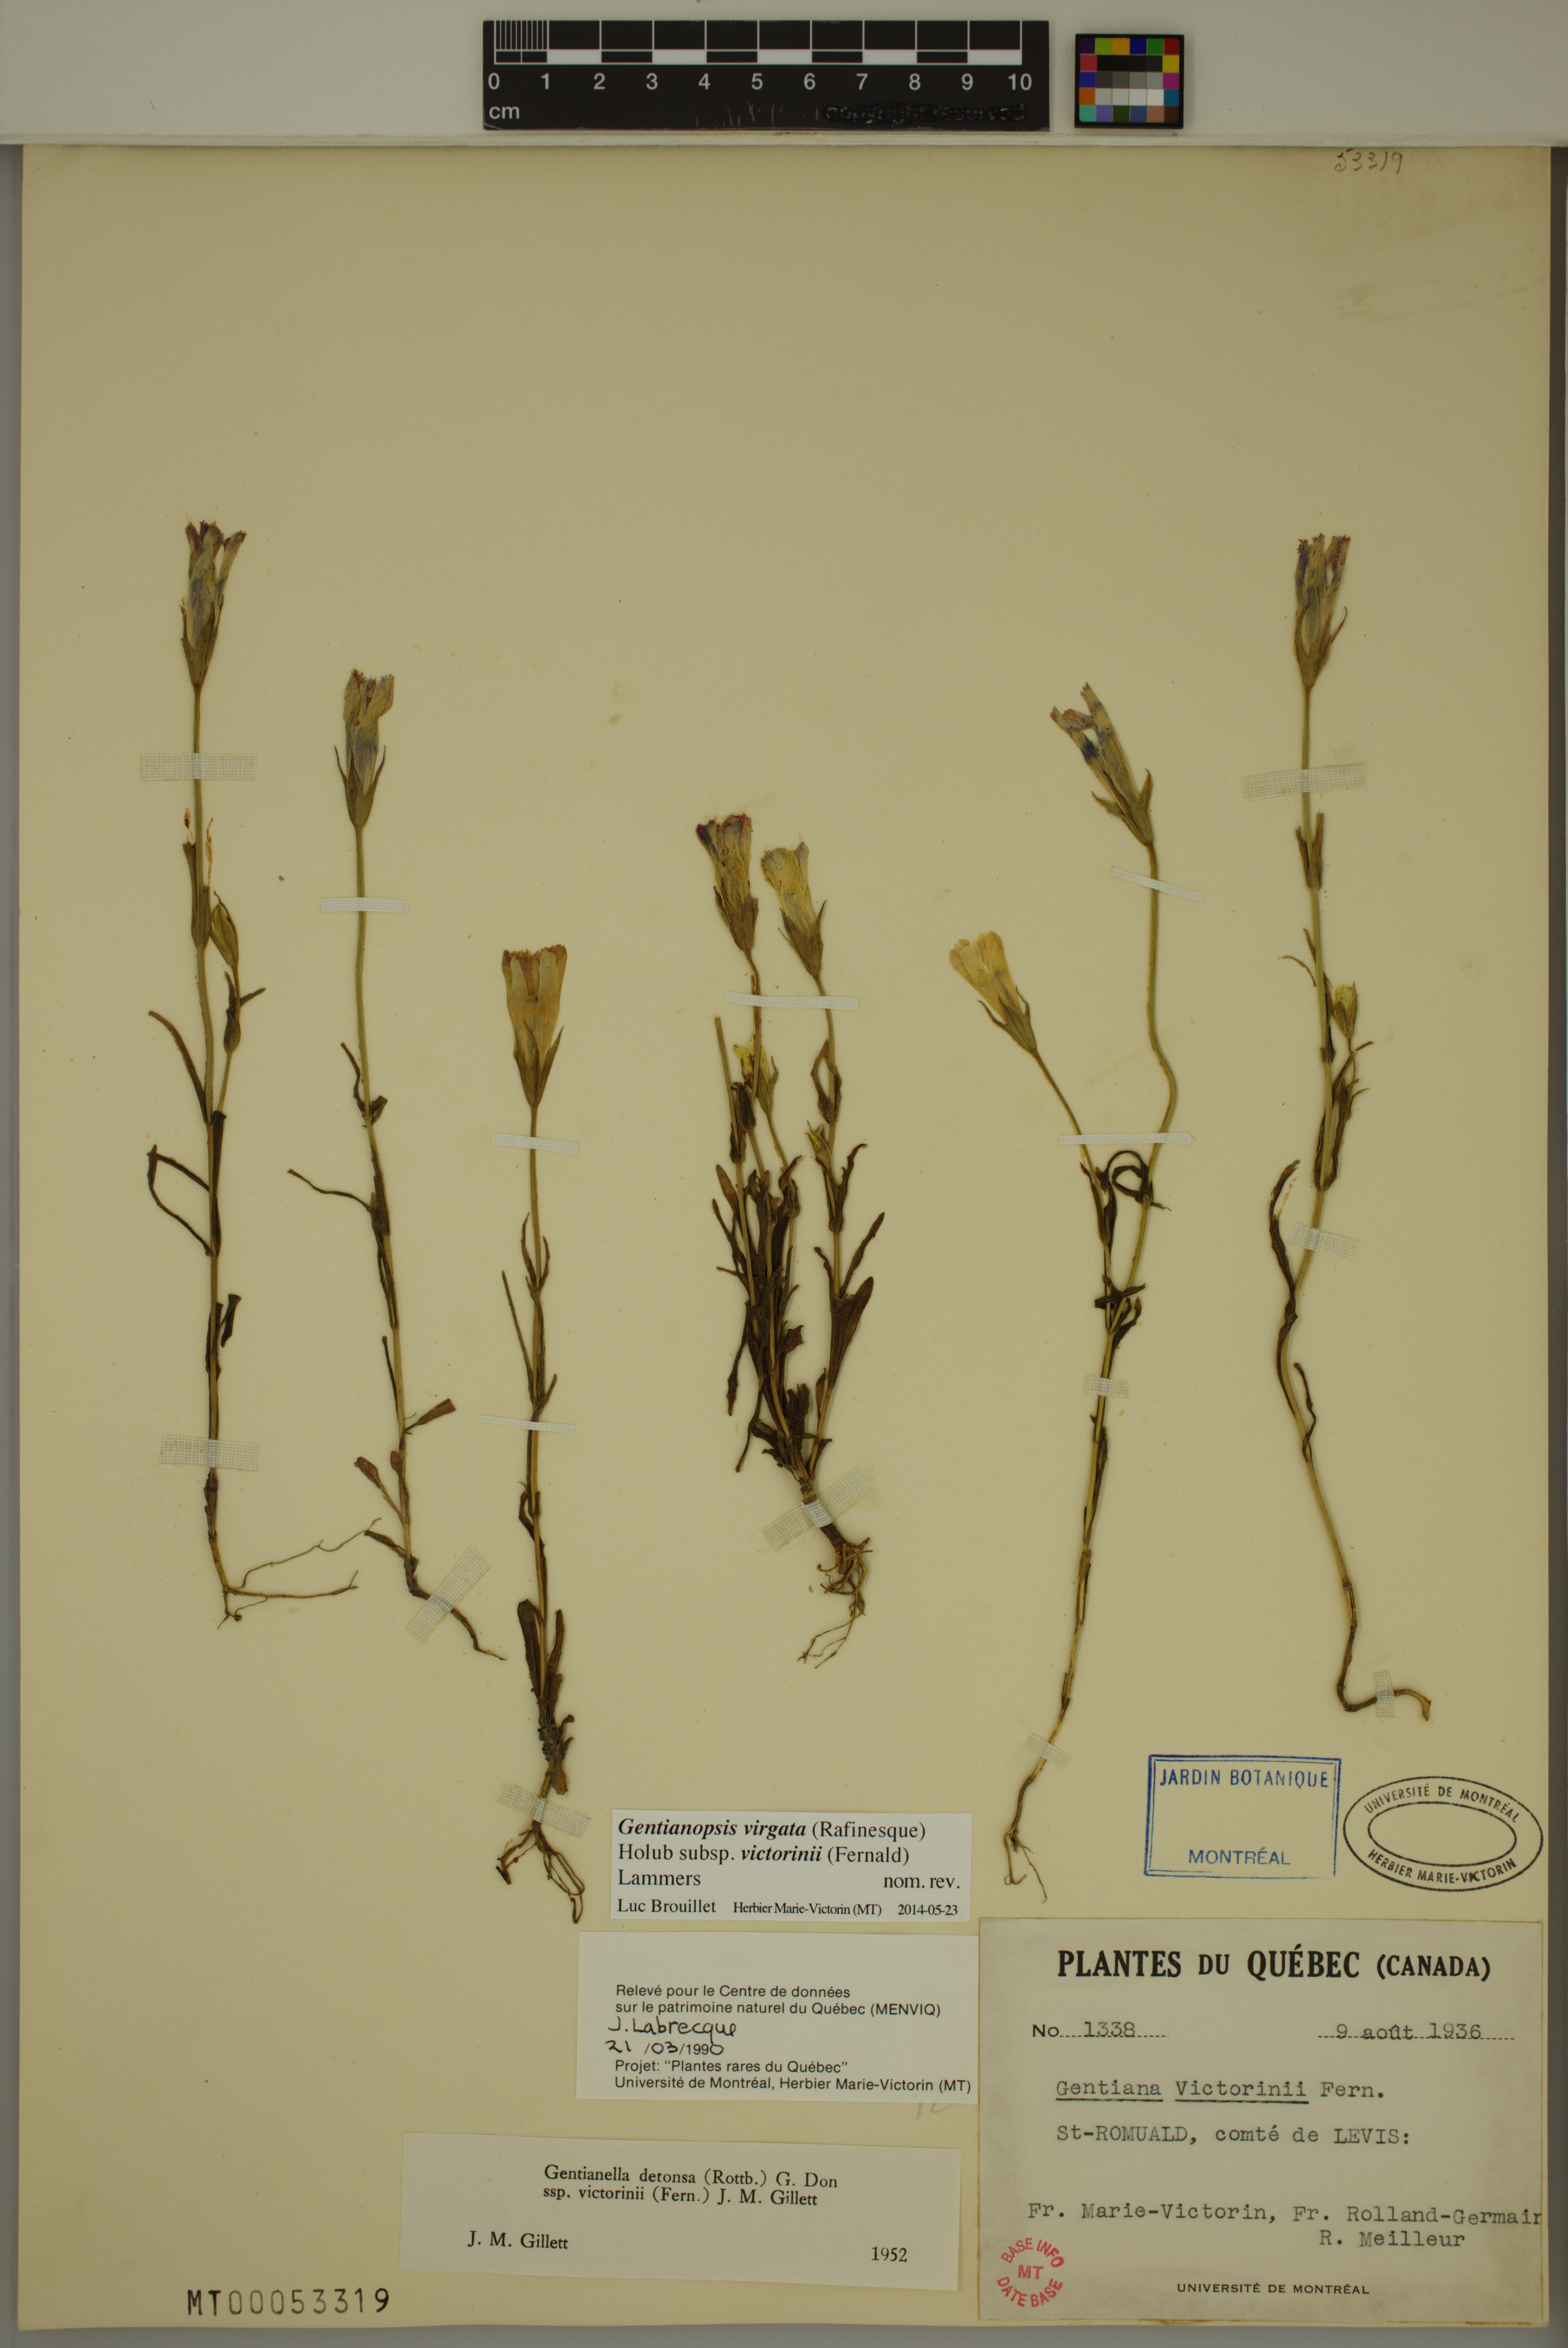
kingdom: Plantae
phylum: Tracheophyta
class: Magnoliopsida
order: Gentianales
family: Gentianaceae
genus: Gentianopsis
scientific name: Gentianopsis victorinii
